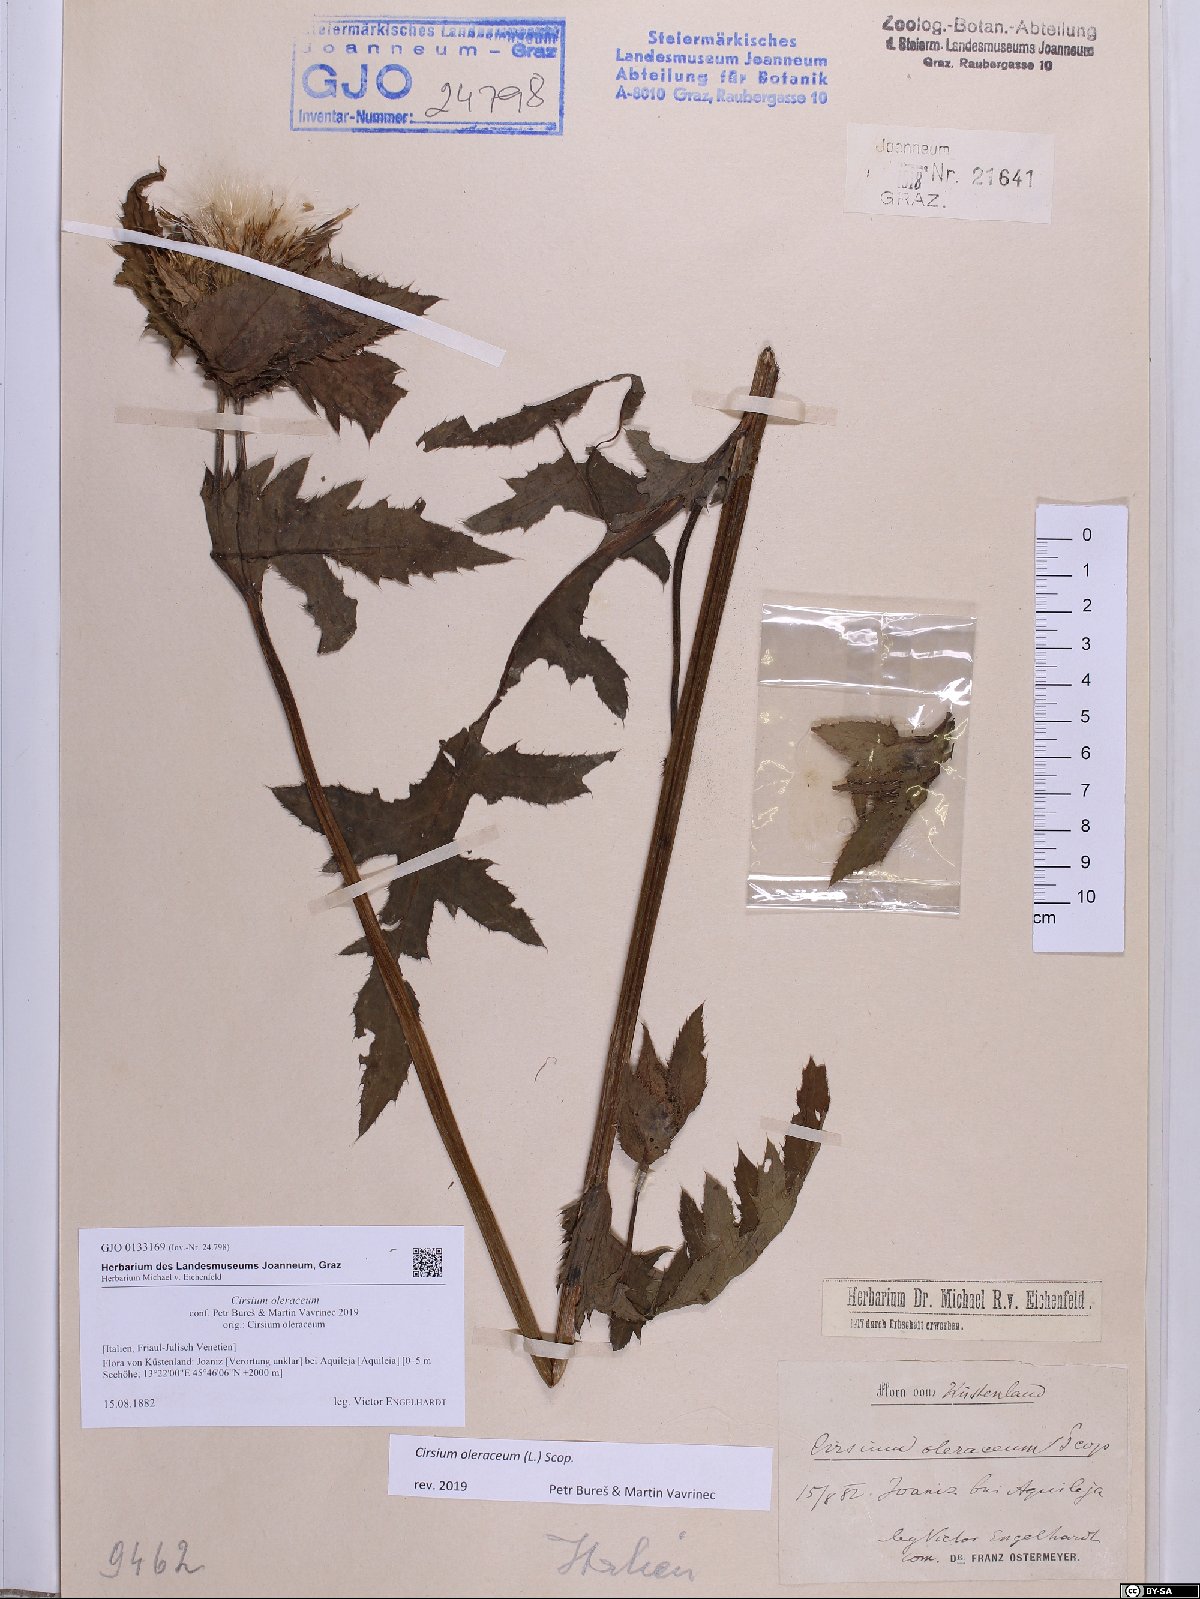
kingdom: Plantae
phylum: Tracheophyta
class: Magnoliopsida
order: Asterales
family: Asteraceae
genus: Cirsium
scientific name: Cirsium oleraceum
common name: Cabbage thistle
